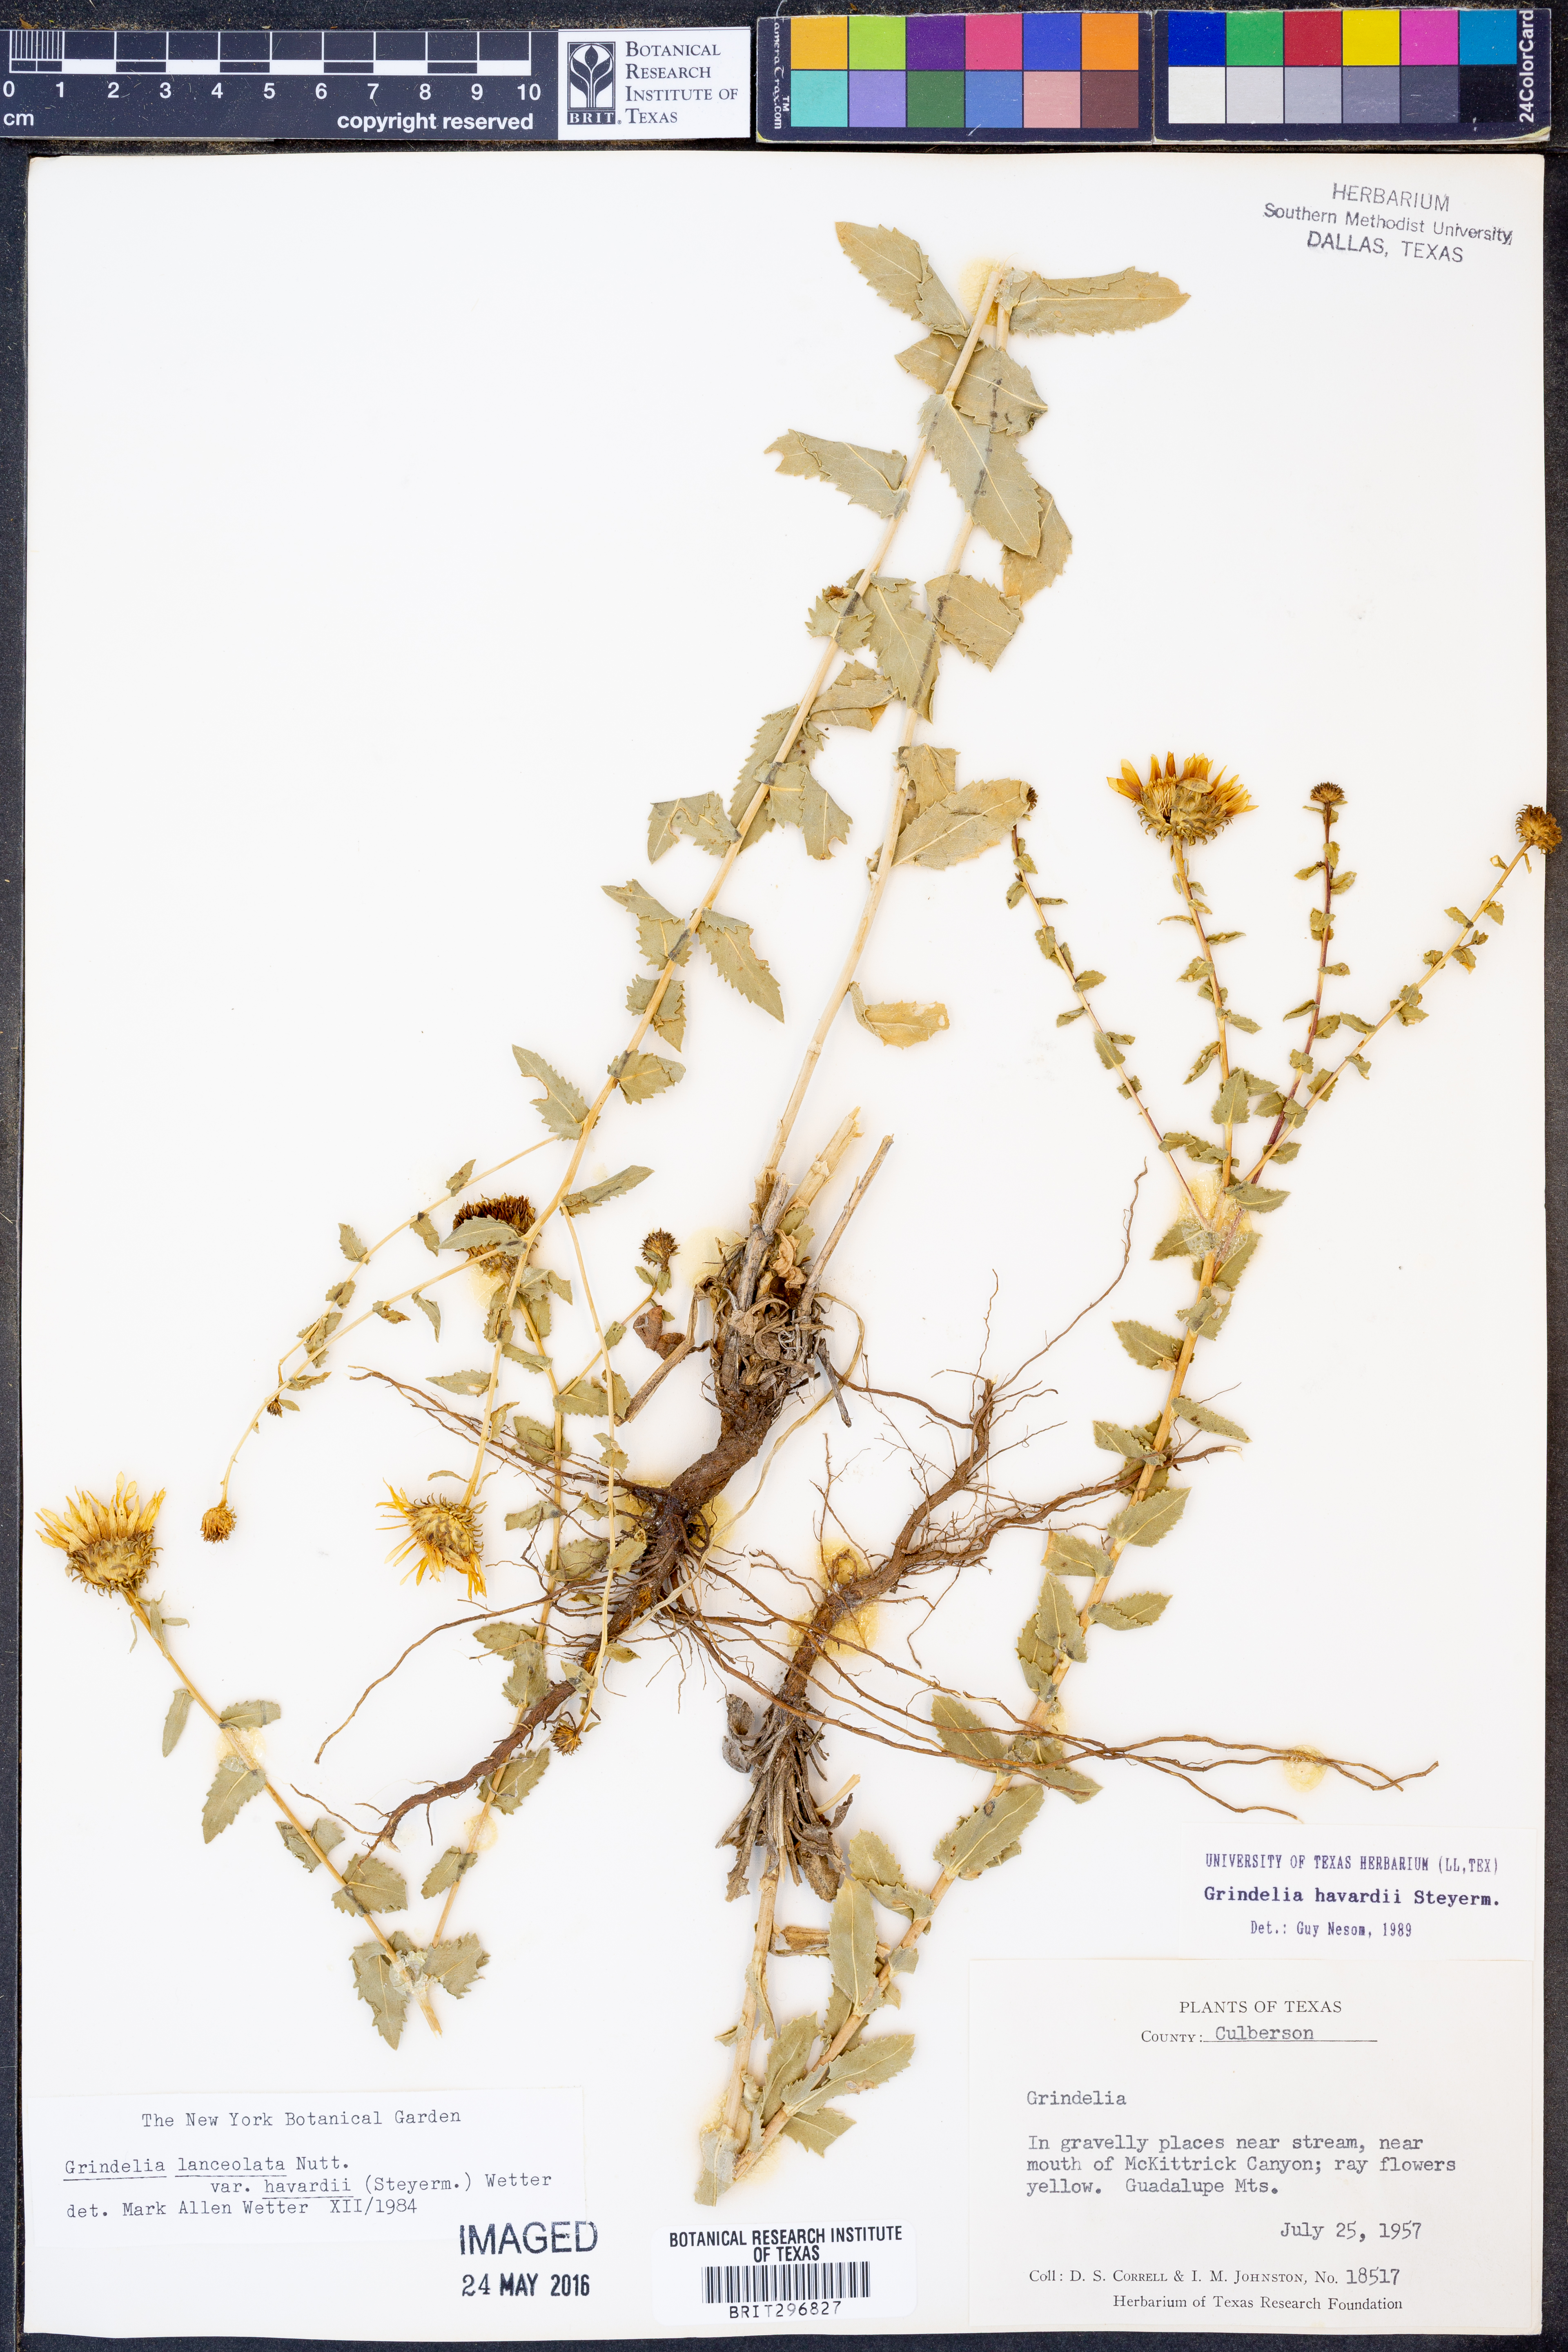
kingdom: Plantae
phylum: Tracheophyta
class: Magnoliopsida
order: Asterales
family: Asteraceae
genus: Grindelia
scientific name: Grindelia havardii
